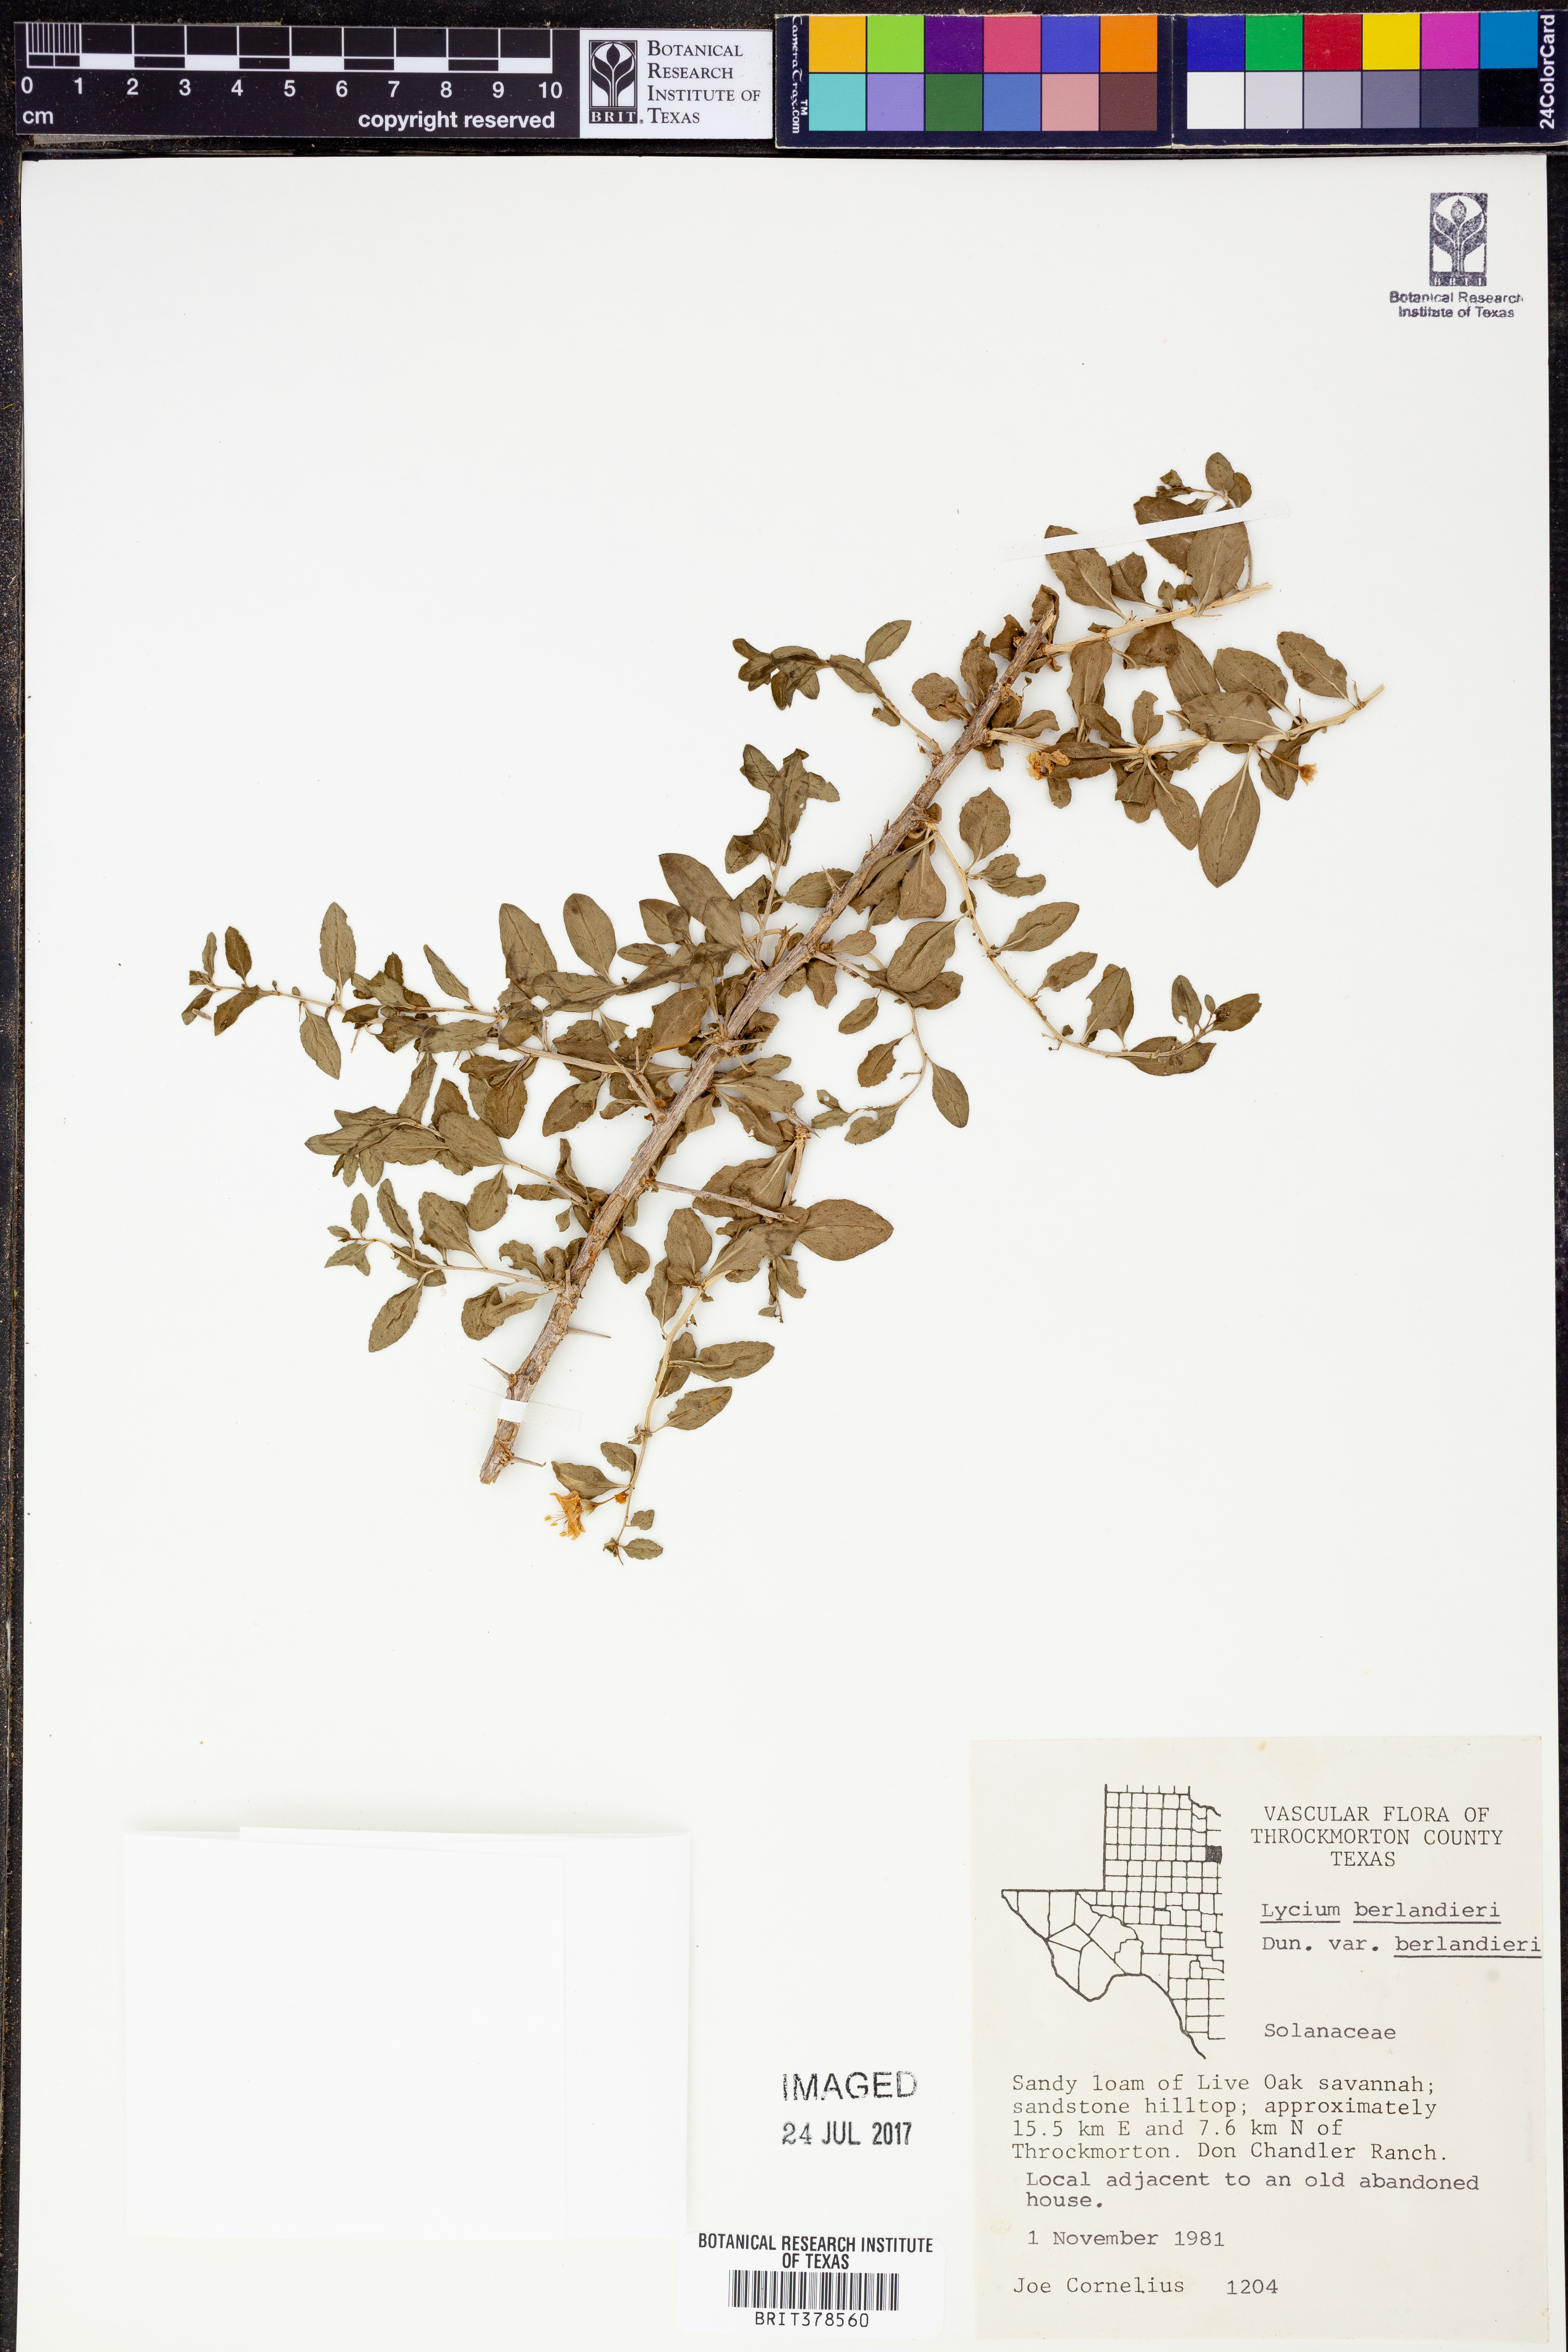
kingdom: Plantae
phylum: Tracheophyta
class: Magnoliopsida
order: Solanales
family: Solanaceae
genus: Lycium
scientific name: Lycium berlandieri
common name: Berlandier wolfberry
